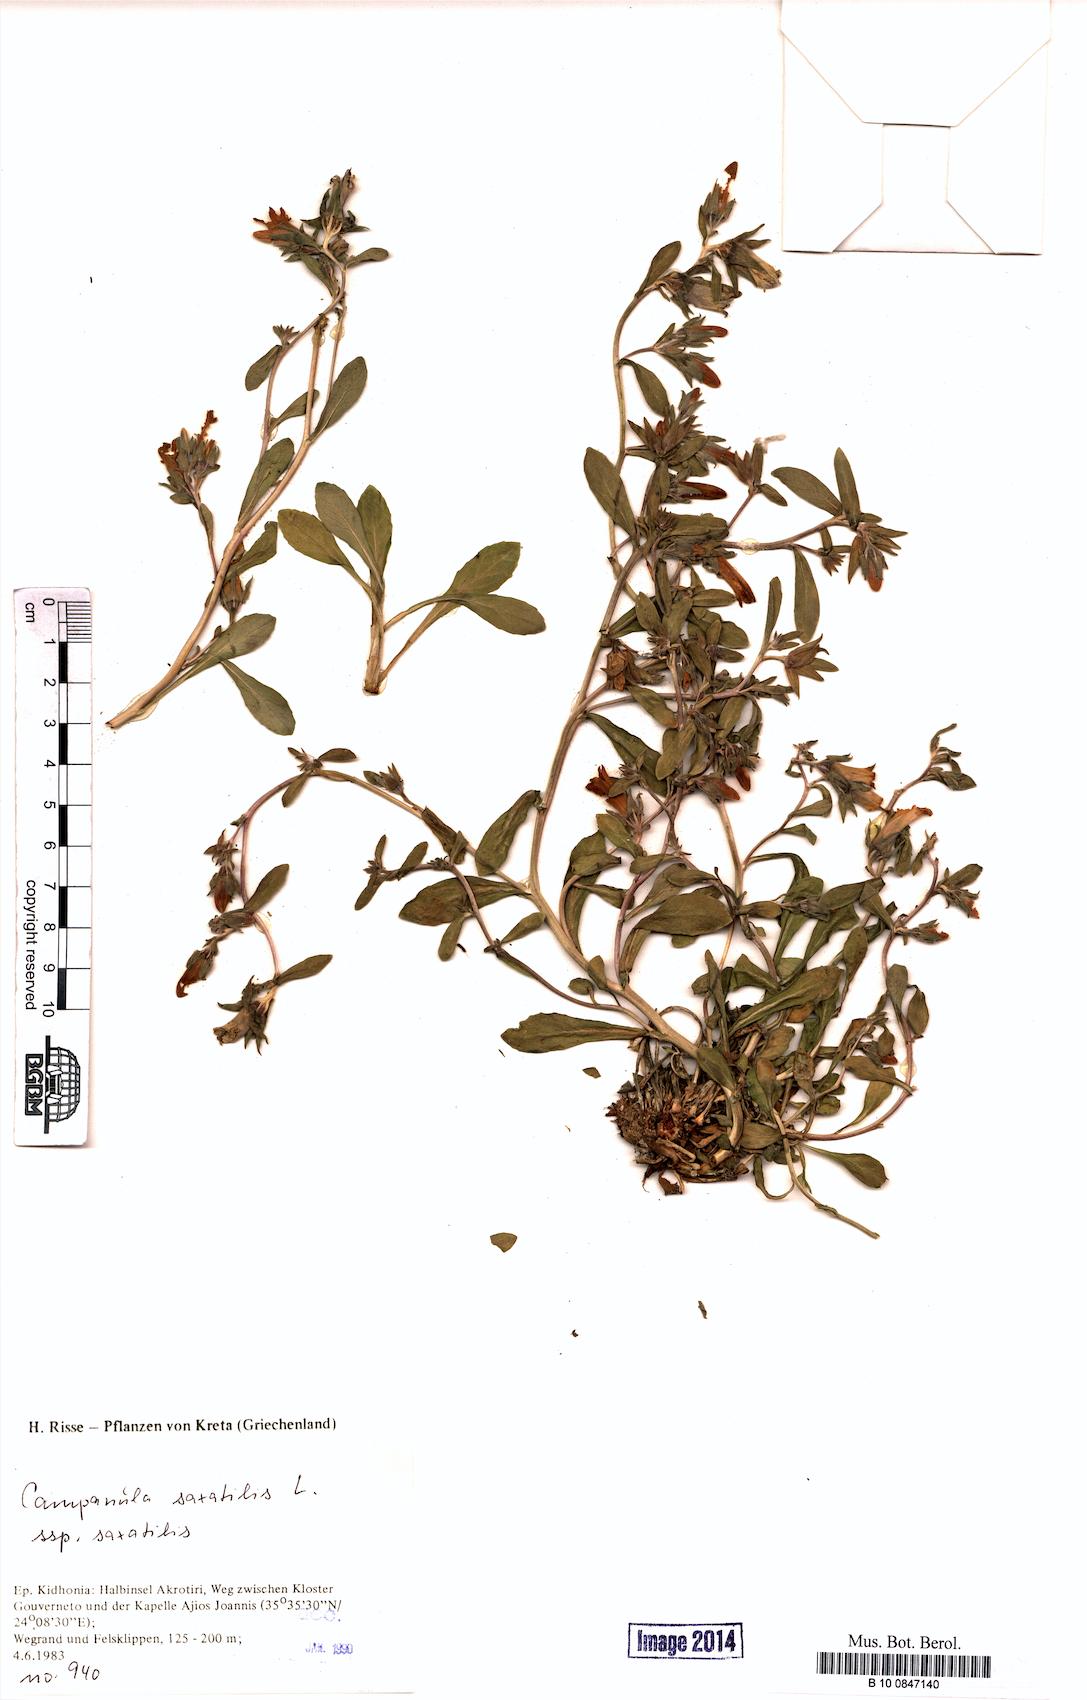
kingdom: Plantae
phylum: Tracheophyta
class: Magnoliopsida
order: Asterales
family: Campanulaceae
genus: Campanula
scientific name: Campanula saxatilis
